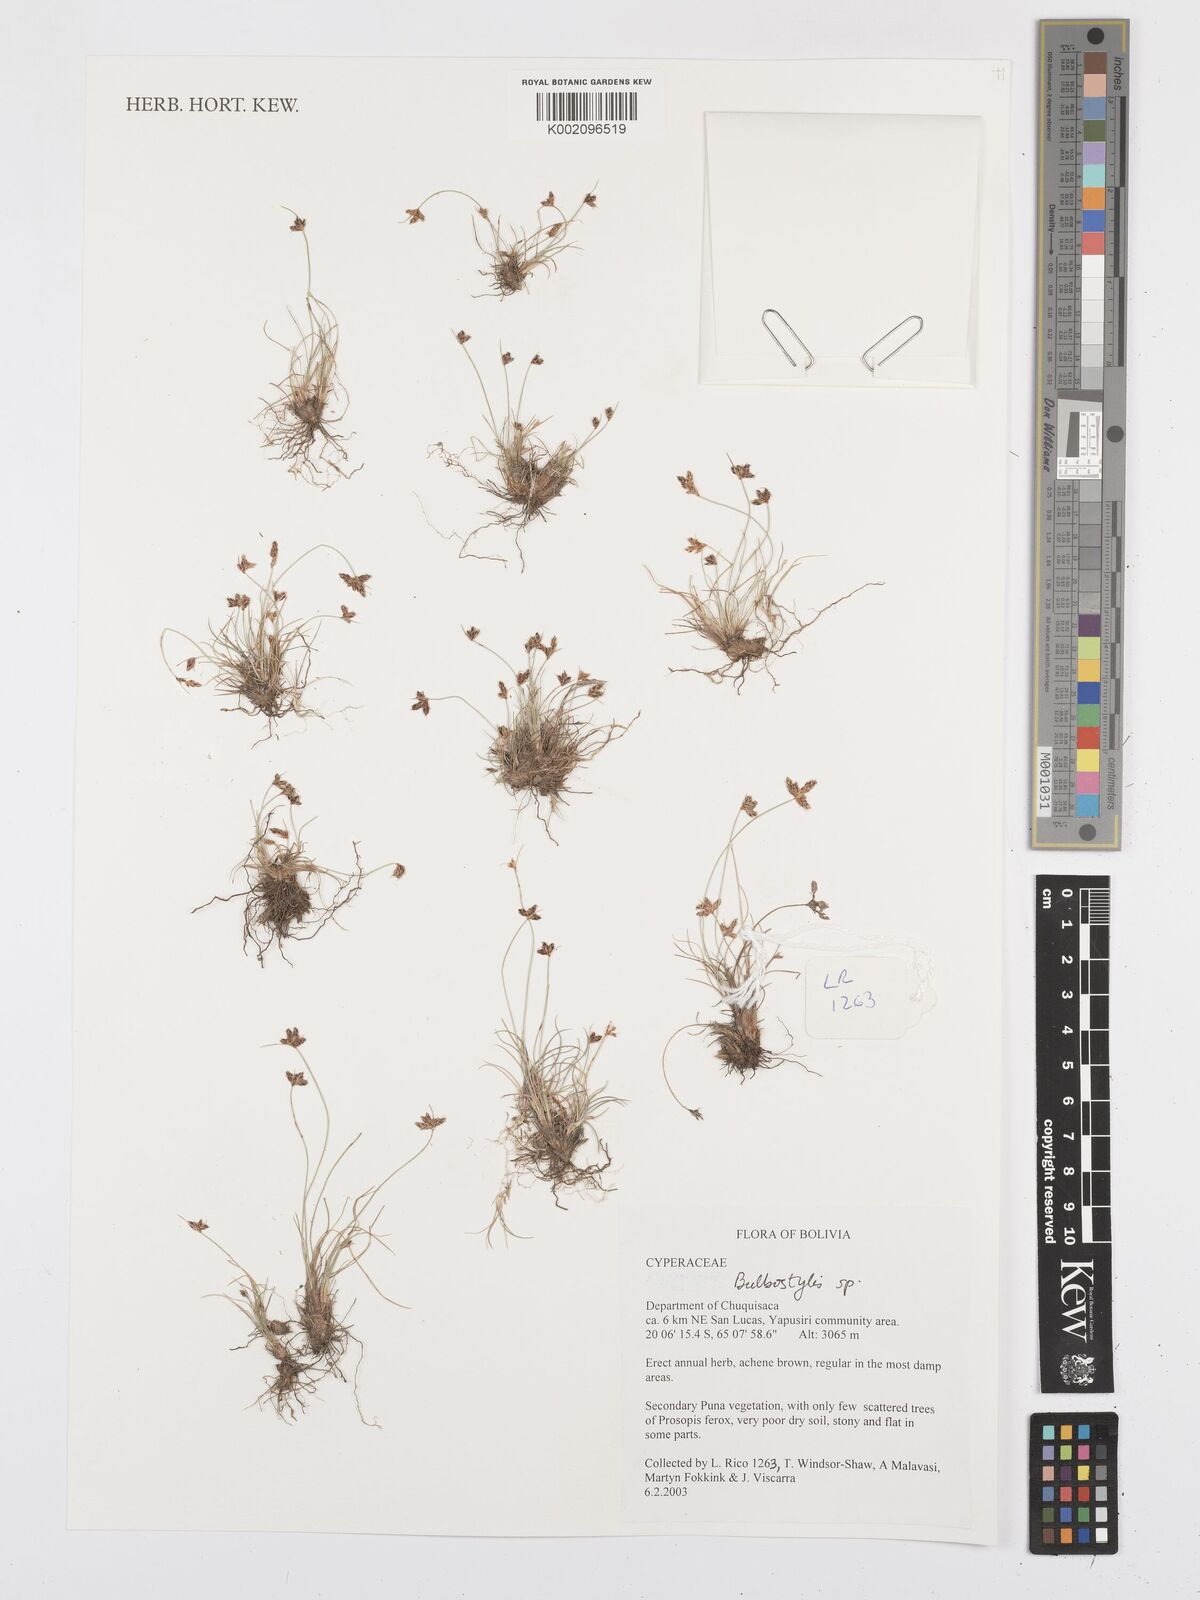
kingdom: Plantae
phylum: Tracheophyta
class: Liliopsida
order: Poales
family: Cyperaceae
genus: Bulbostylis
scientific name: Bulbostylis
